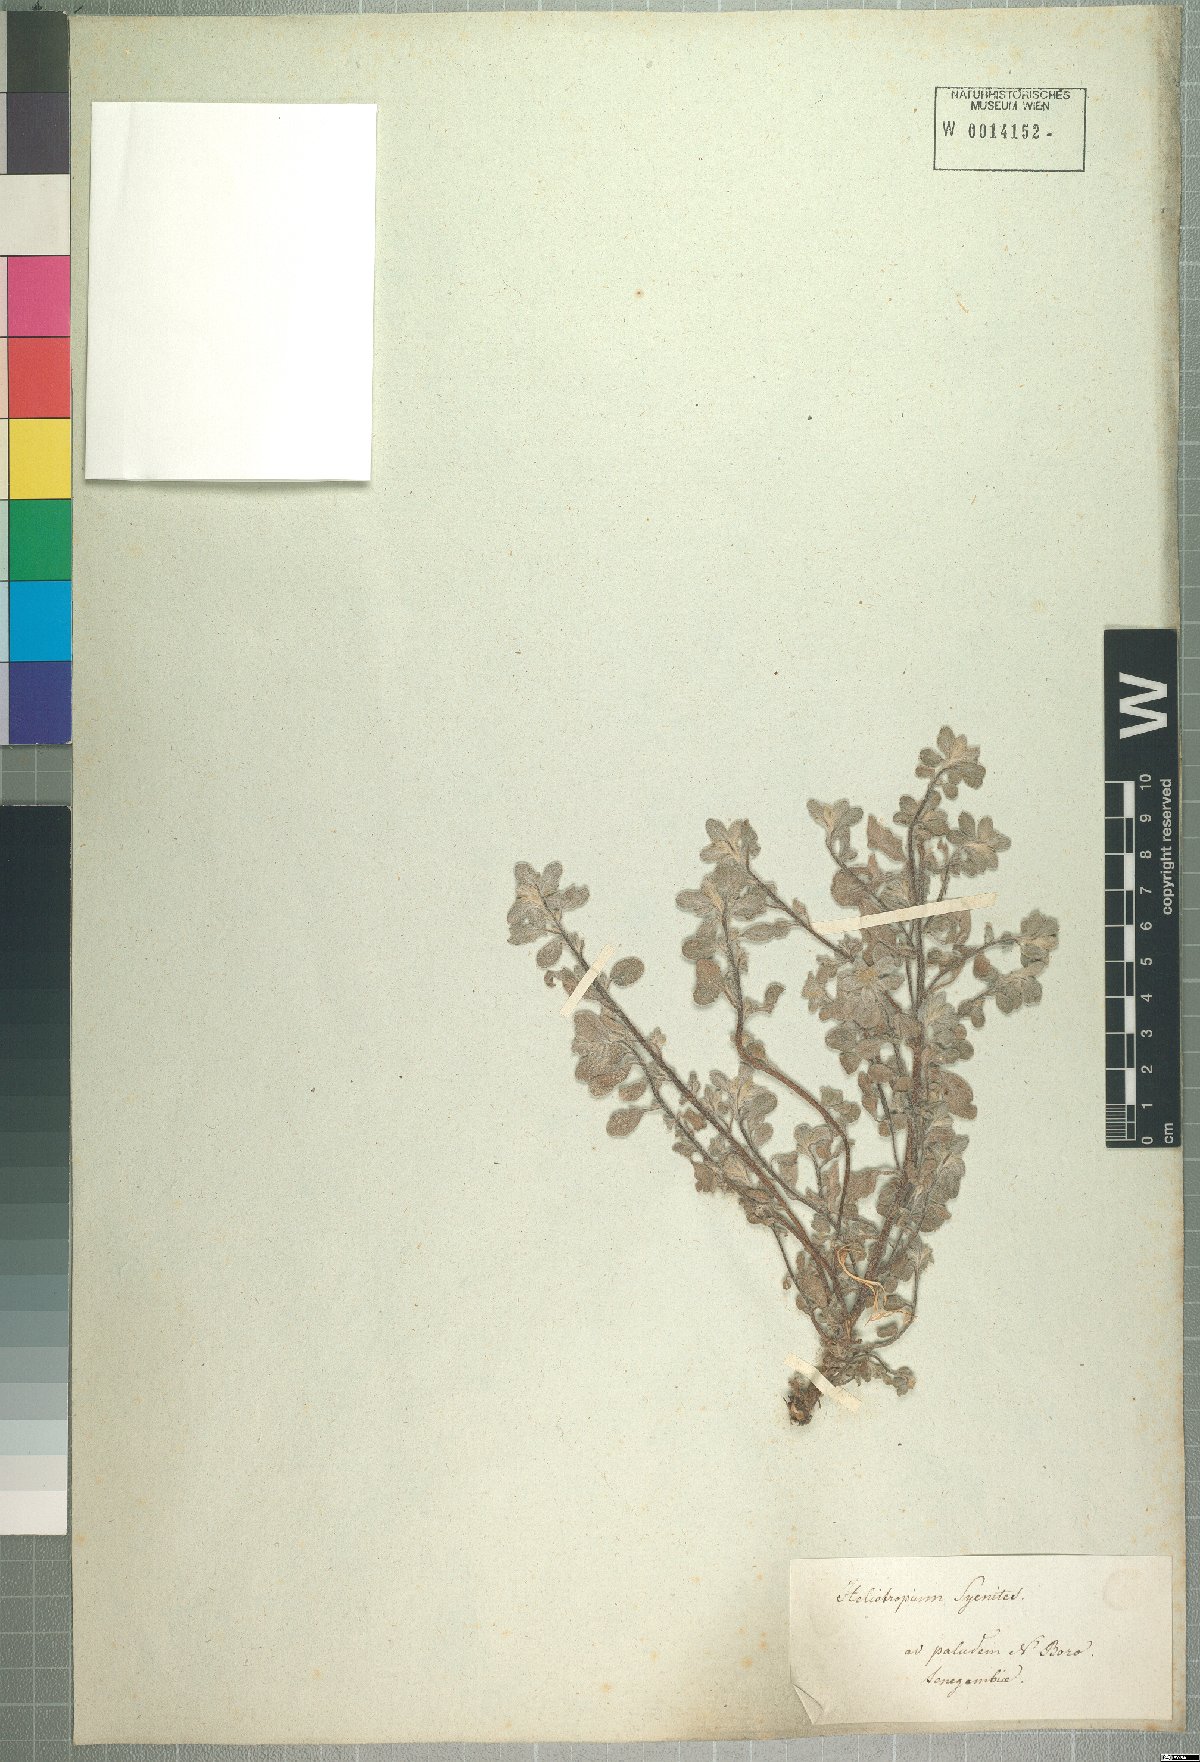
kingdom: Plantae
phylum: Tracheophyta
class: Magnoliopsida
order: Boraginales
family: Heliotropiaceae
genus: Euploca
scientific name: Euploca ovalifolia
